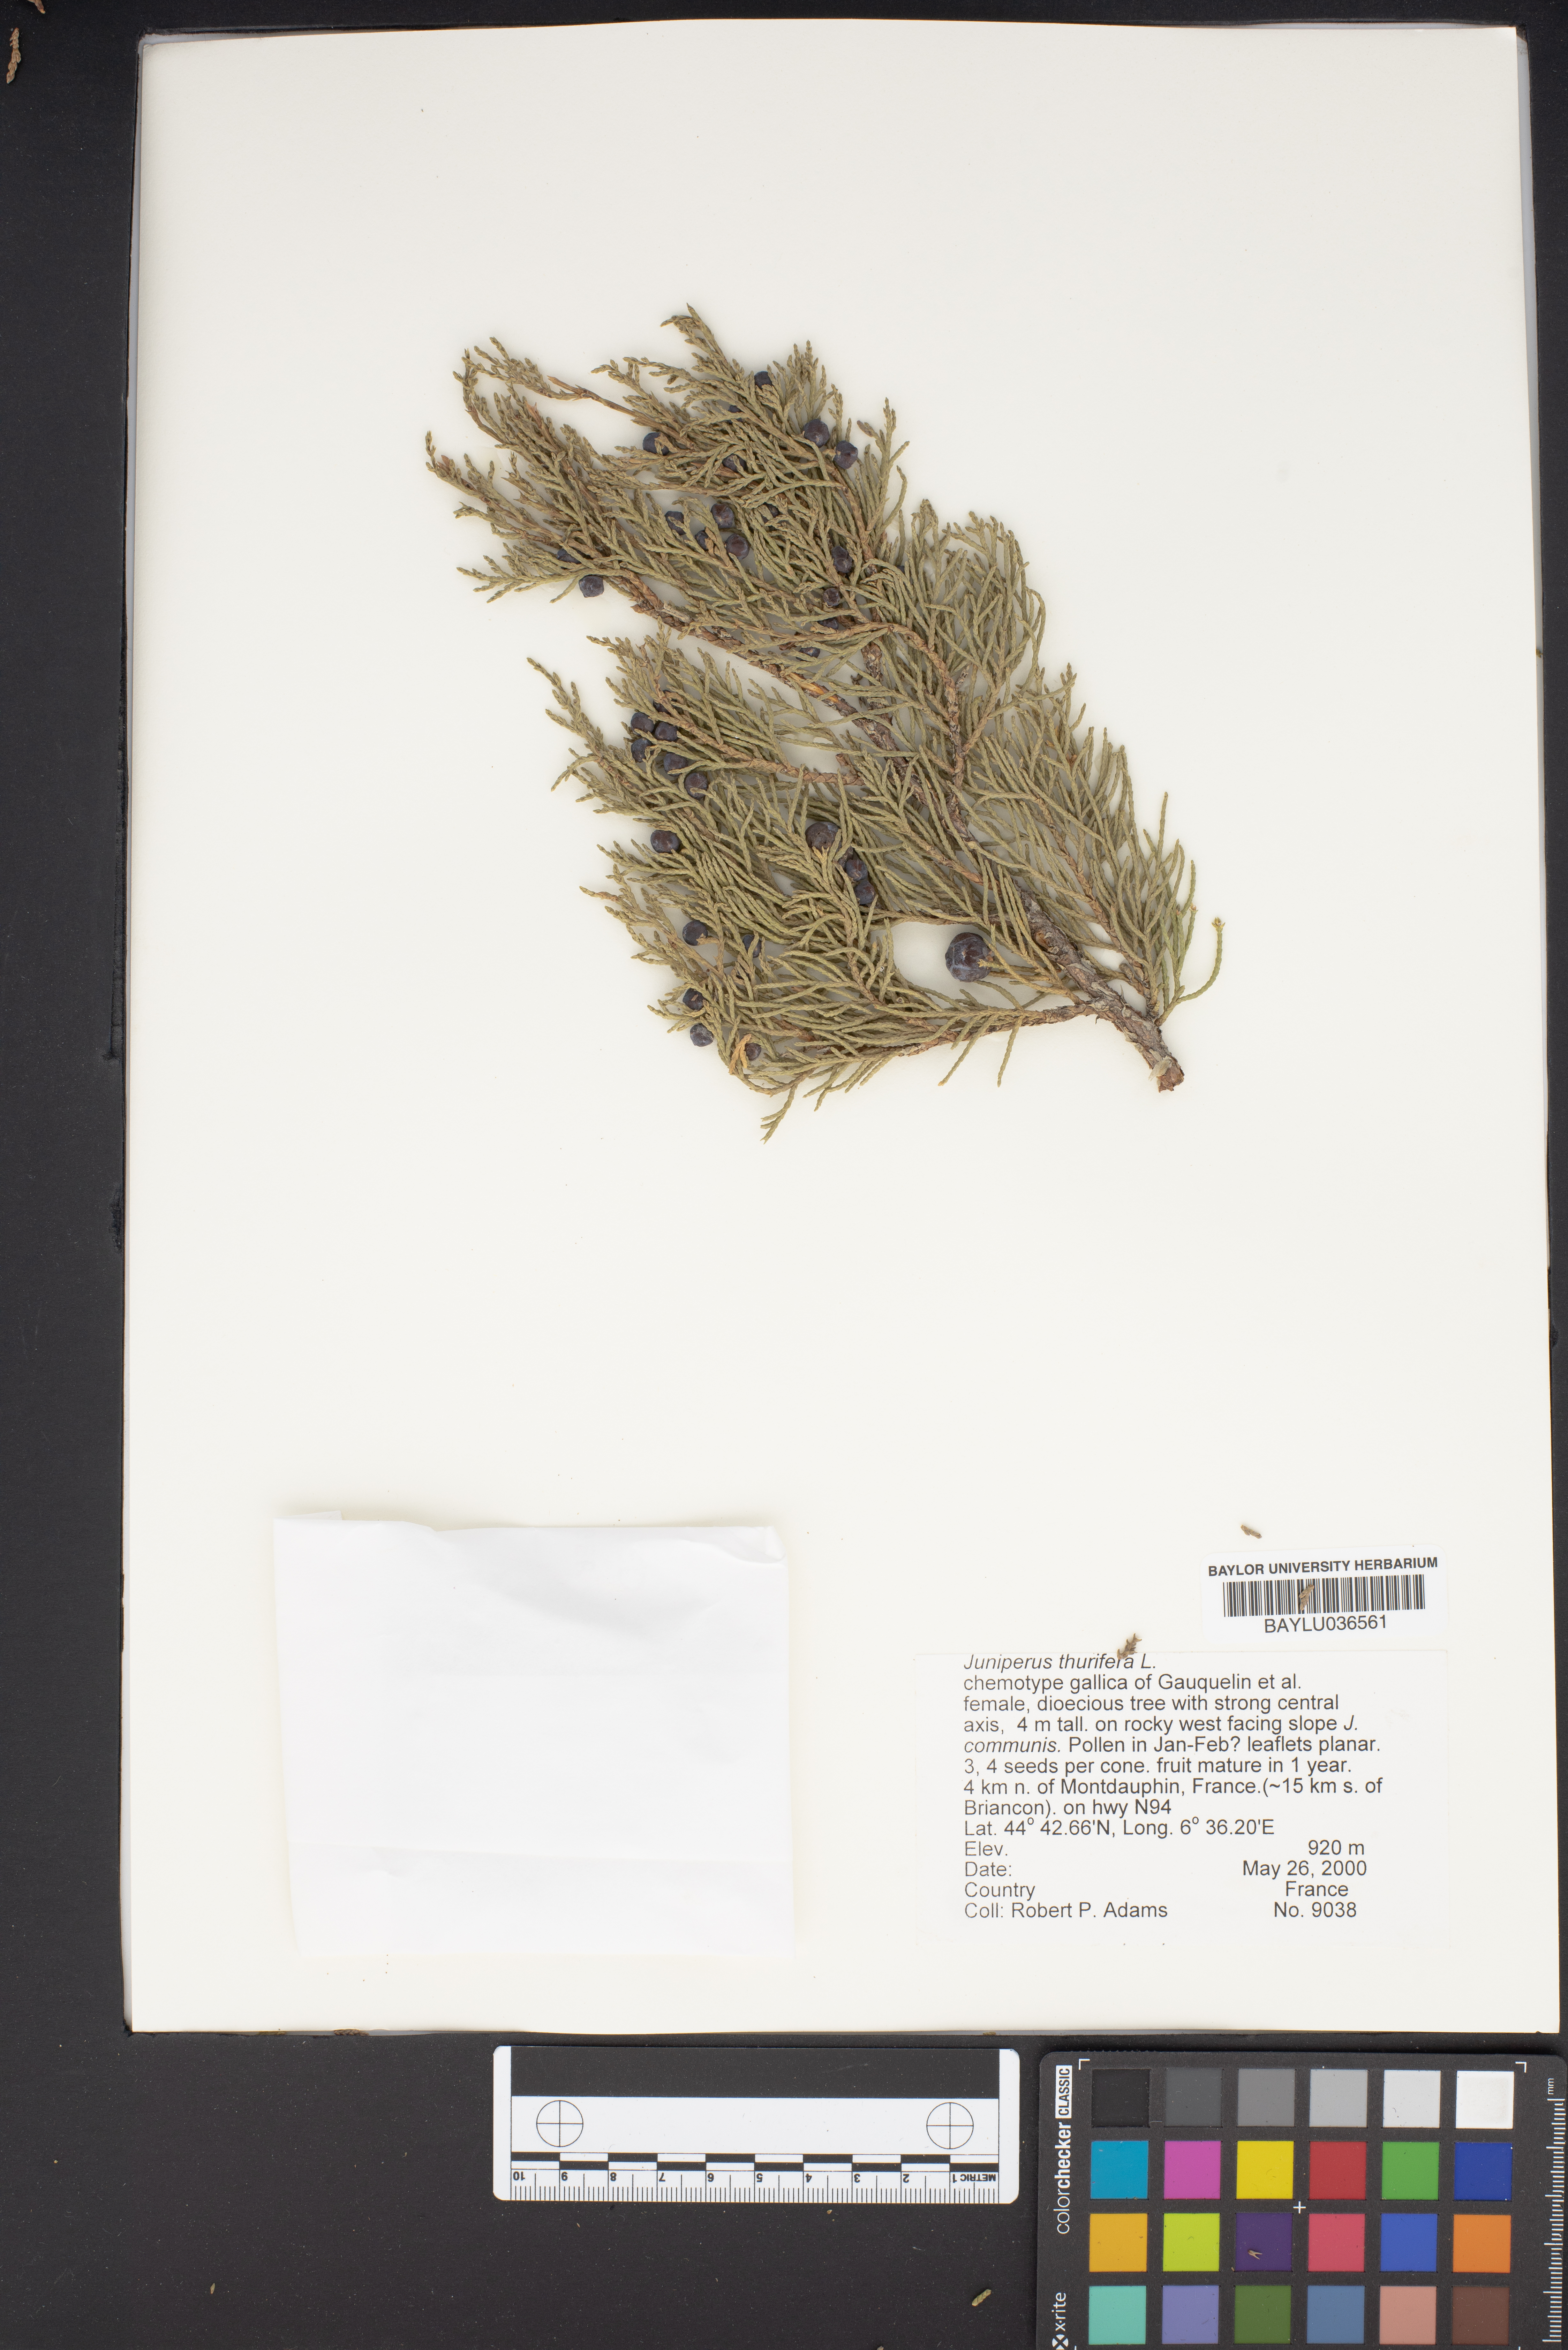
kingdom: Plantae
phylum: Tracheophyta
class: Pinopsida
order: Pinales
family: Cupressaceae
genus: Juniperus
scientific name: Juniperus thurifera
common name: Incense juniper
